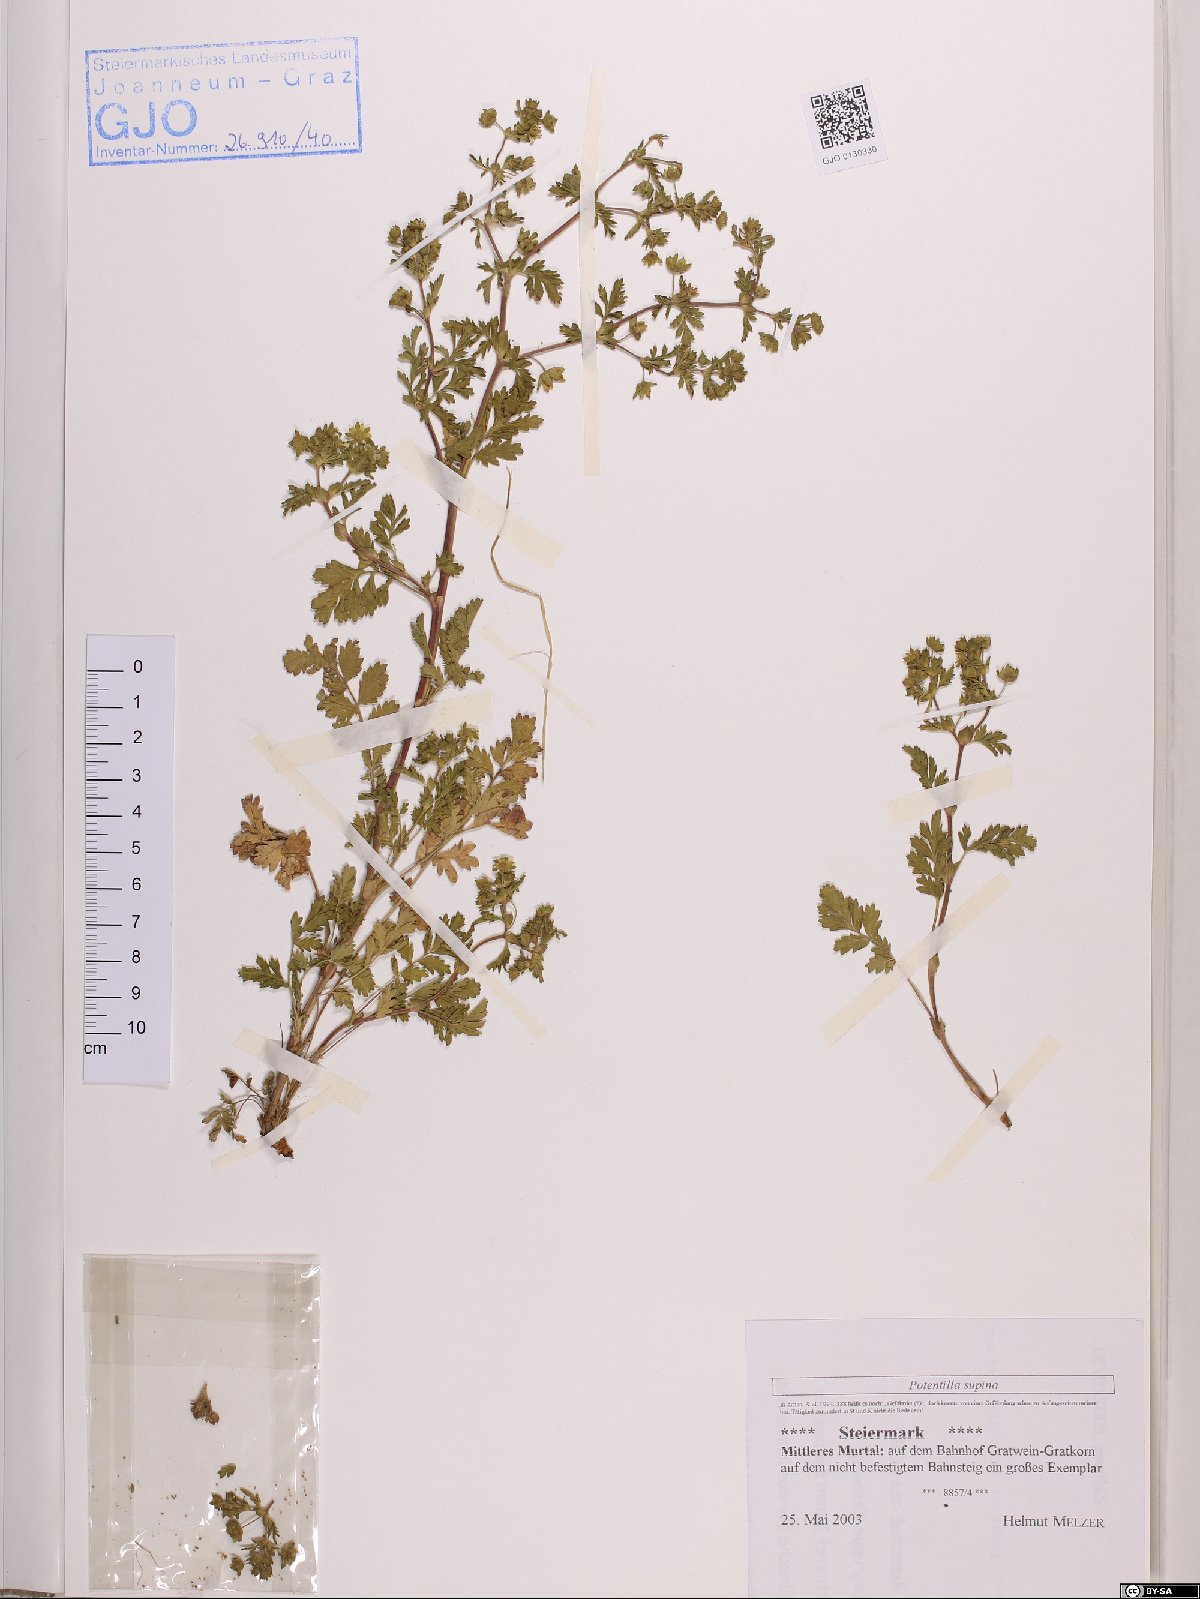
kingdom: Plantae
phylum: Tracheophyta
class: Magnoliopsida
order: Rosales
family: Rosaceae
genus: Potentilla
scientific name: Potentilla supina
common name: Prostrate cinquefoil
